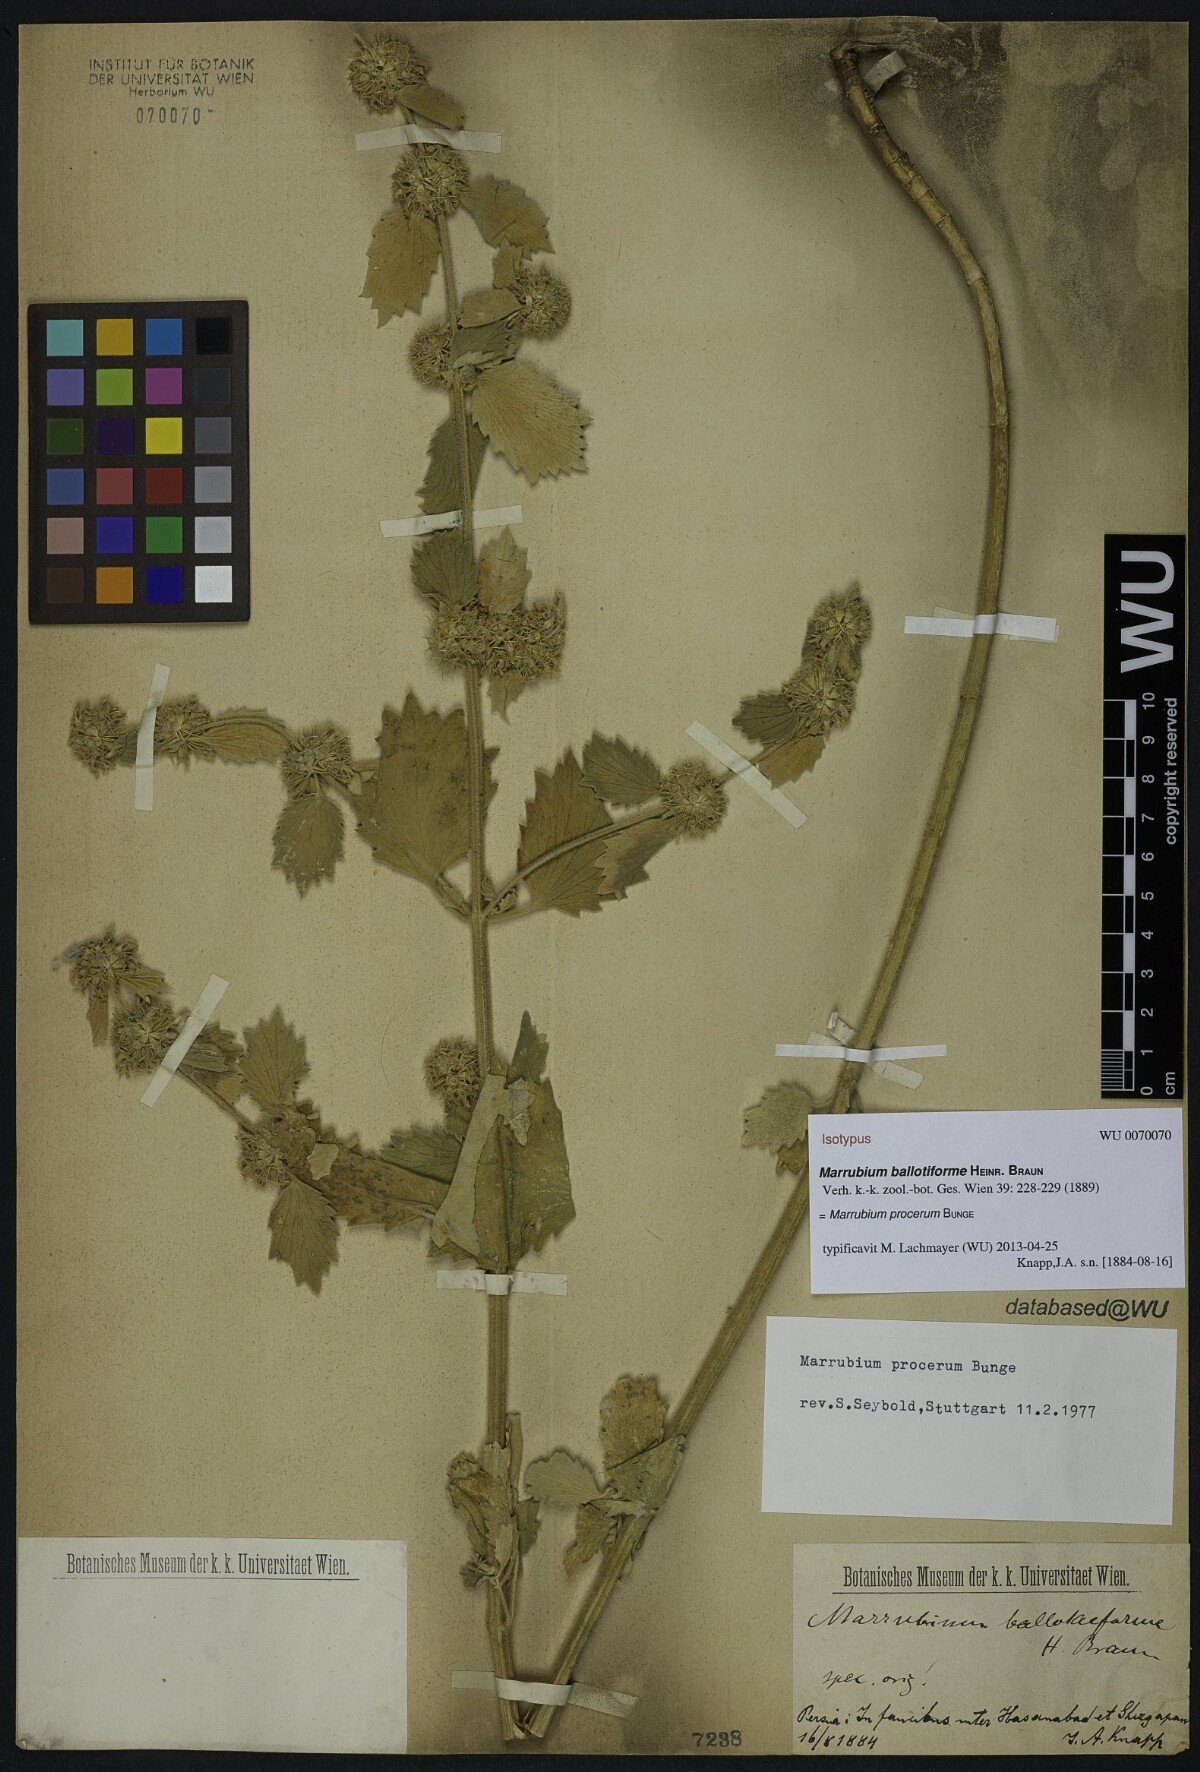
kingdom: Plantae
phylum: Tracheophyta
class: Magnoliopsida
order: Lamiales
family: Lamiaceae
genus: Marrubium
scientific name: Marrubium procerum
